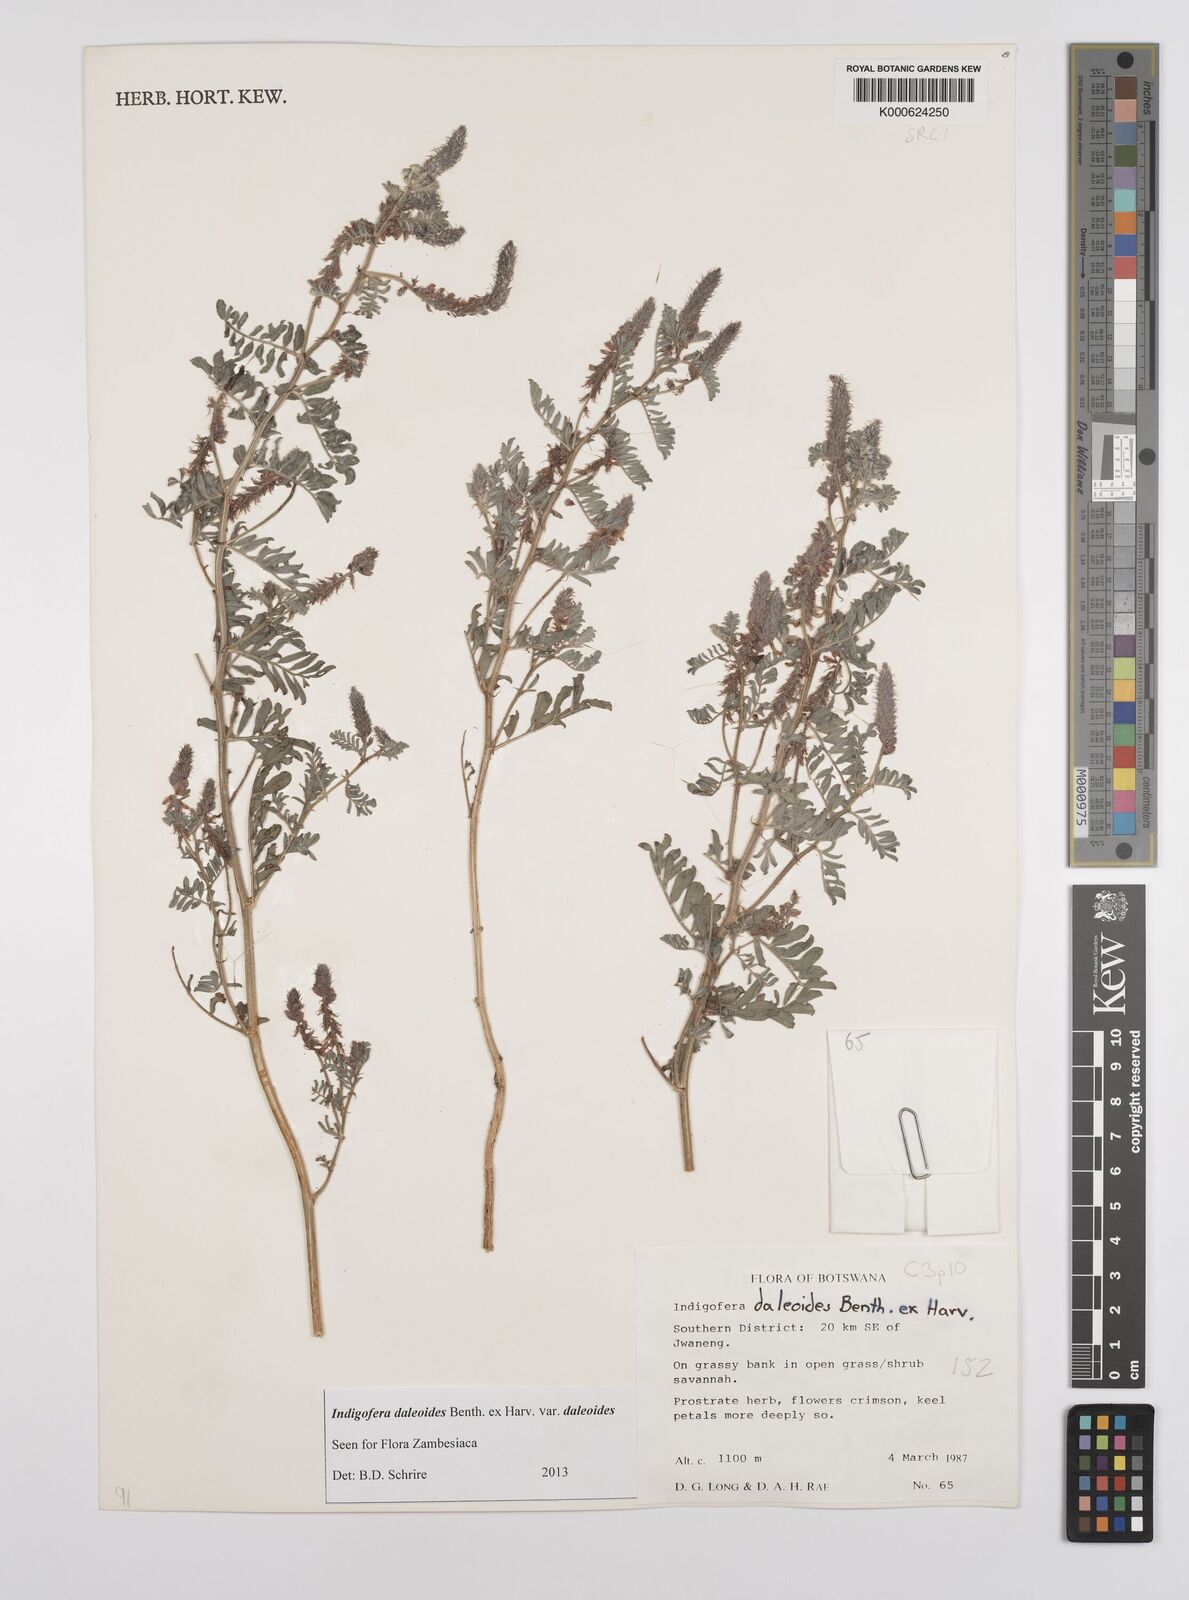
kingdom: Plantae
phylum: Tracheophyta
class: Magnoliopsida
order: Fabales
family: Fabaceae
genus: Indigofera
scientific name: Indigofera daleoides
